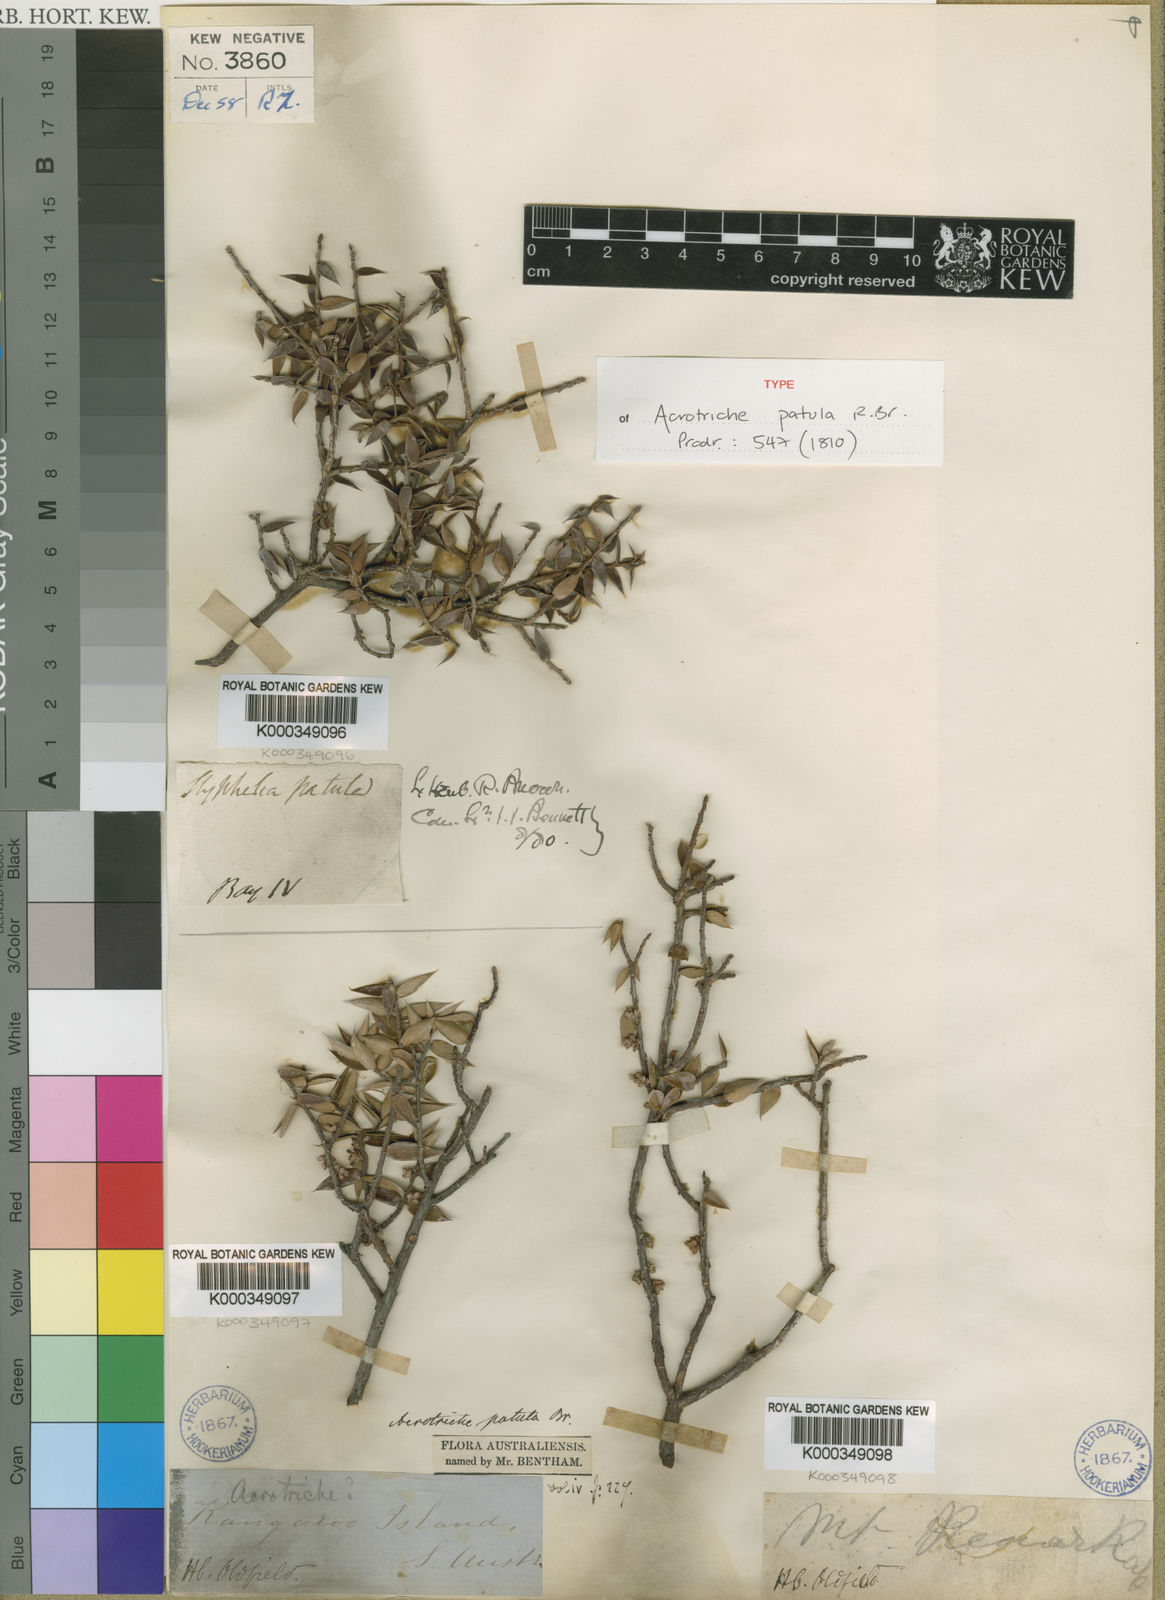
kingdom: Plantae
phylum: Tracheophyta
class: Magnoliopsida
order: Ericales
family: Ericaceae
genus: Acrotriche
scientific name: Acrotriche patula
